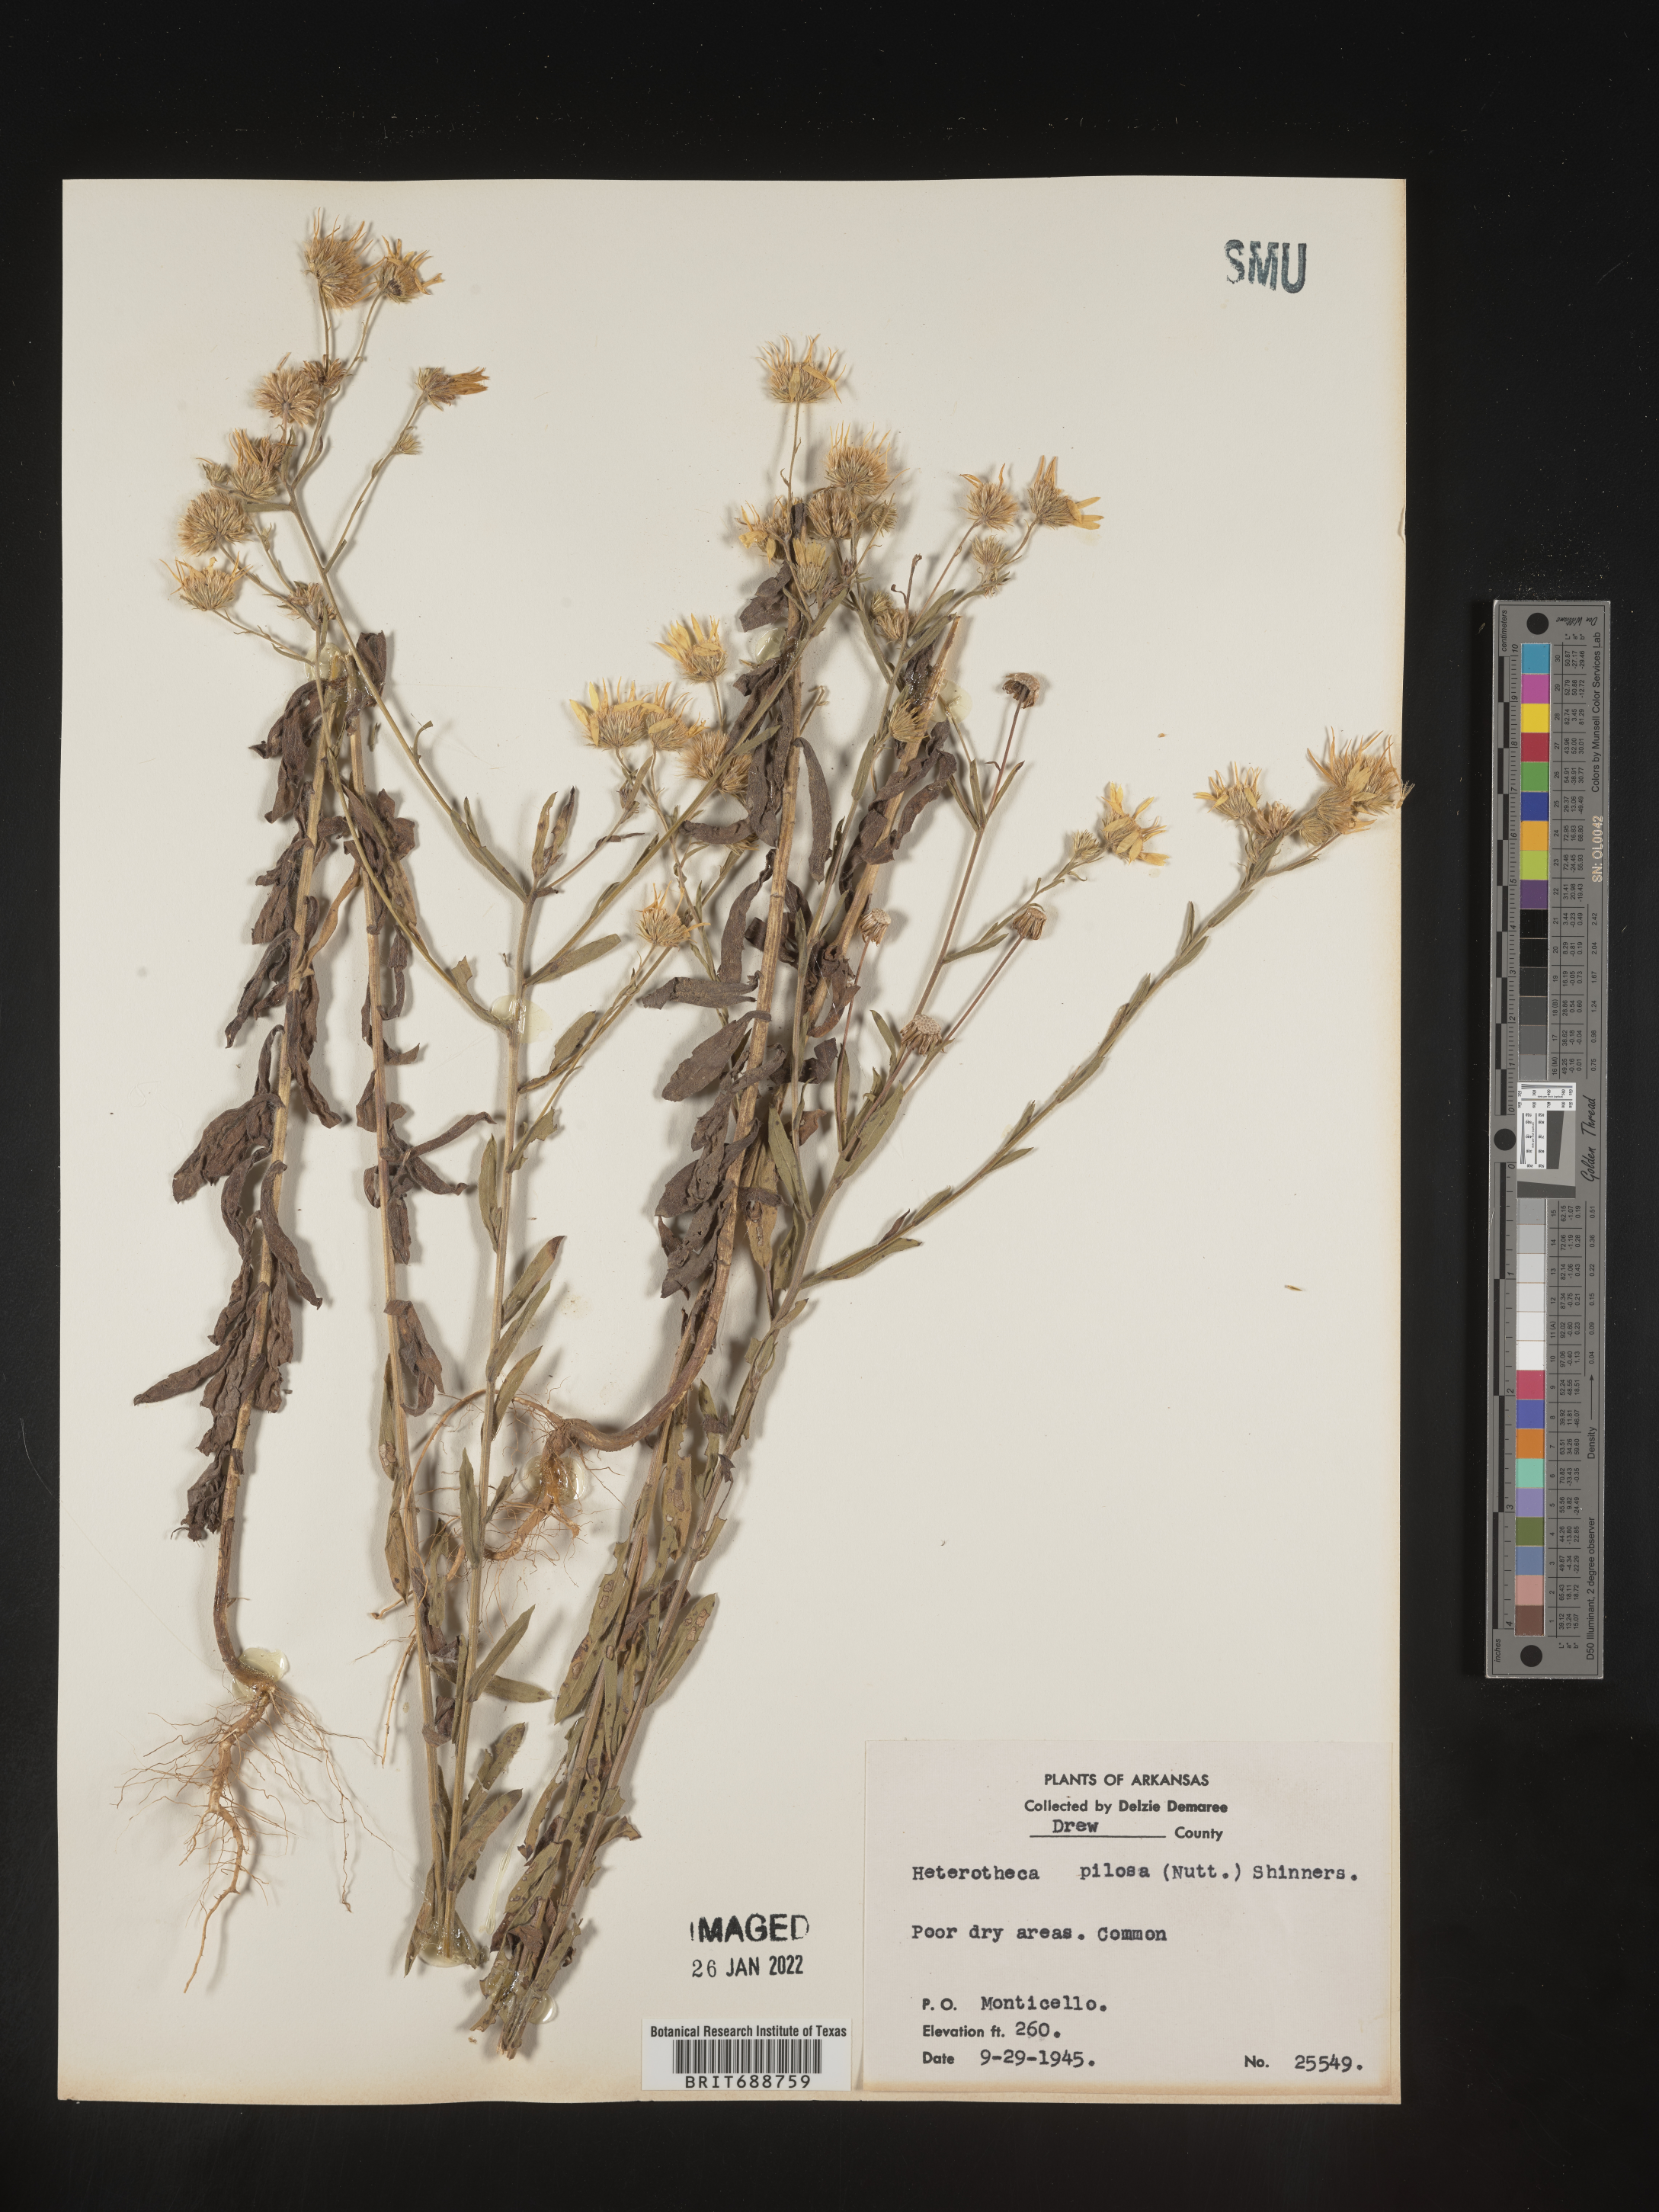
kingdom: Plantae
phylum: Tracheophyta
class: Magnoliopsida
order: Asterales
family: Asteraceae
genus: Bradburia
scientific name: Bradburia pilosa
